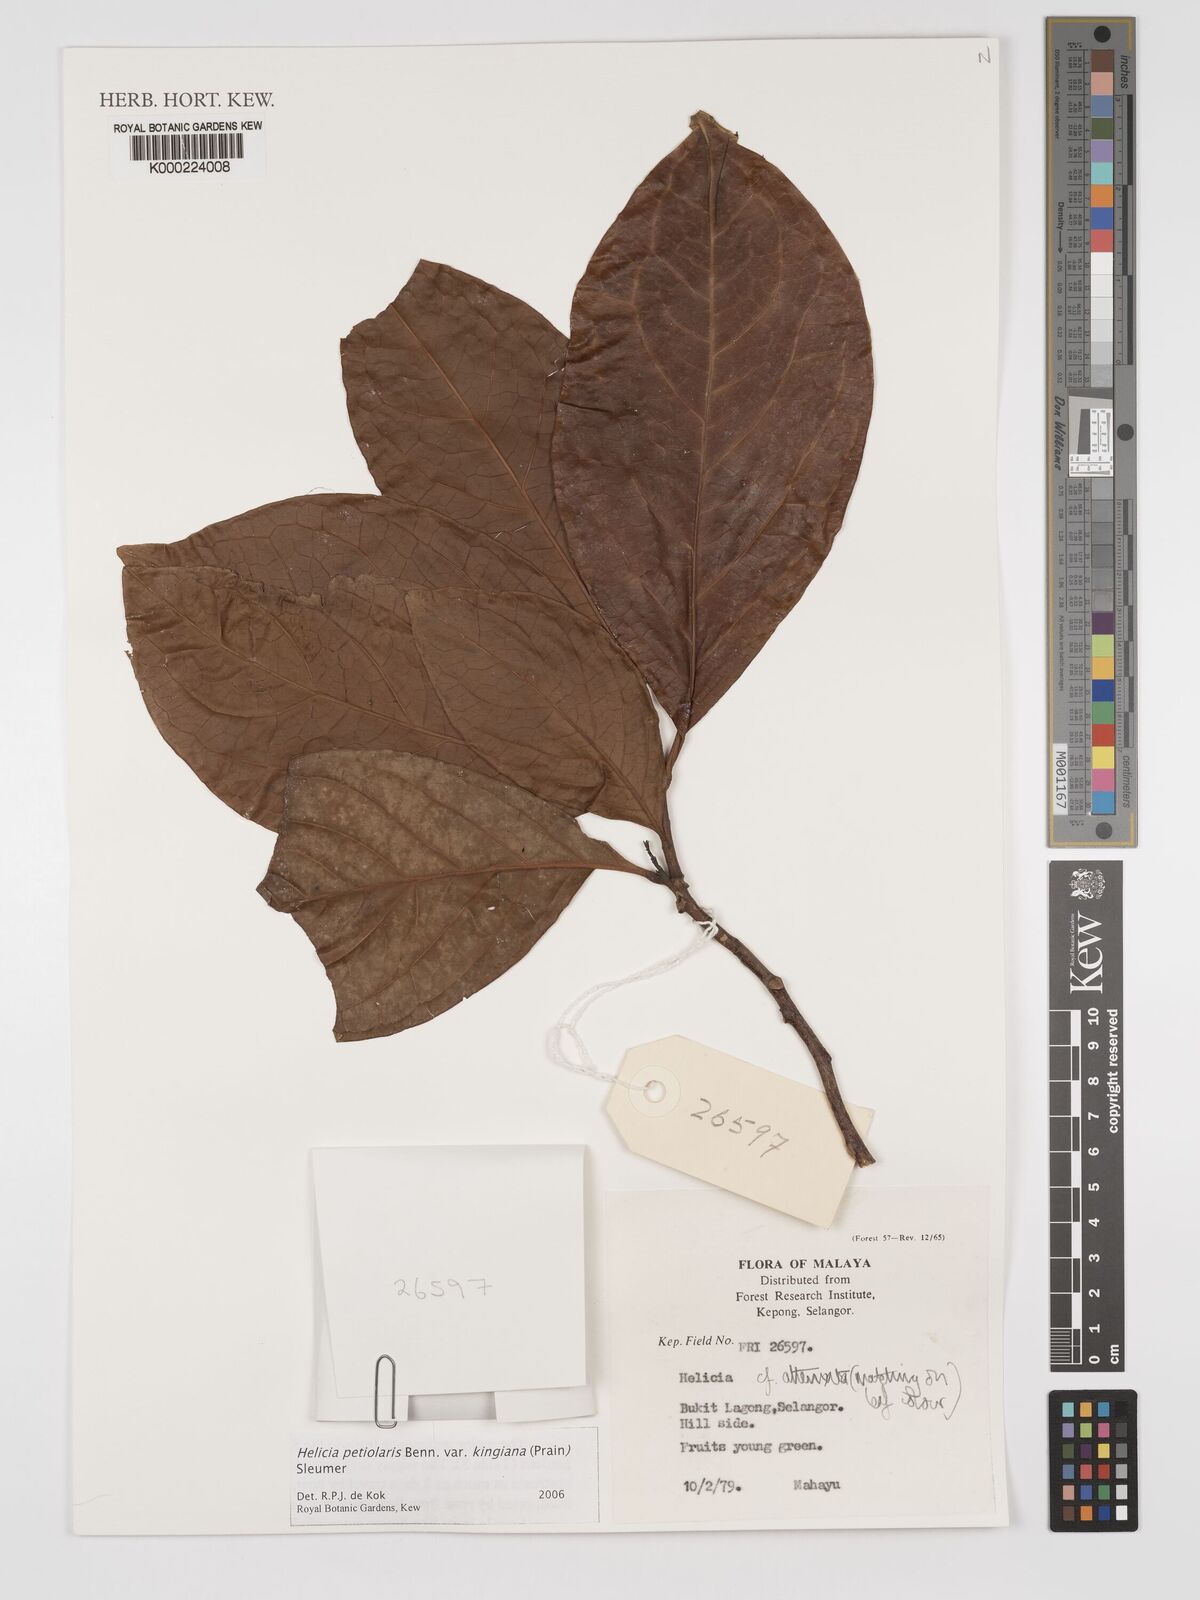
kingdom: Plantae
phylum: Tracheophyta
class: Magnoliopsida
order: Proteales
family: Proteaceae
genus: Helicia
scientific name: Helicia attenuata
